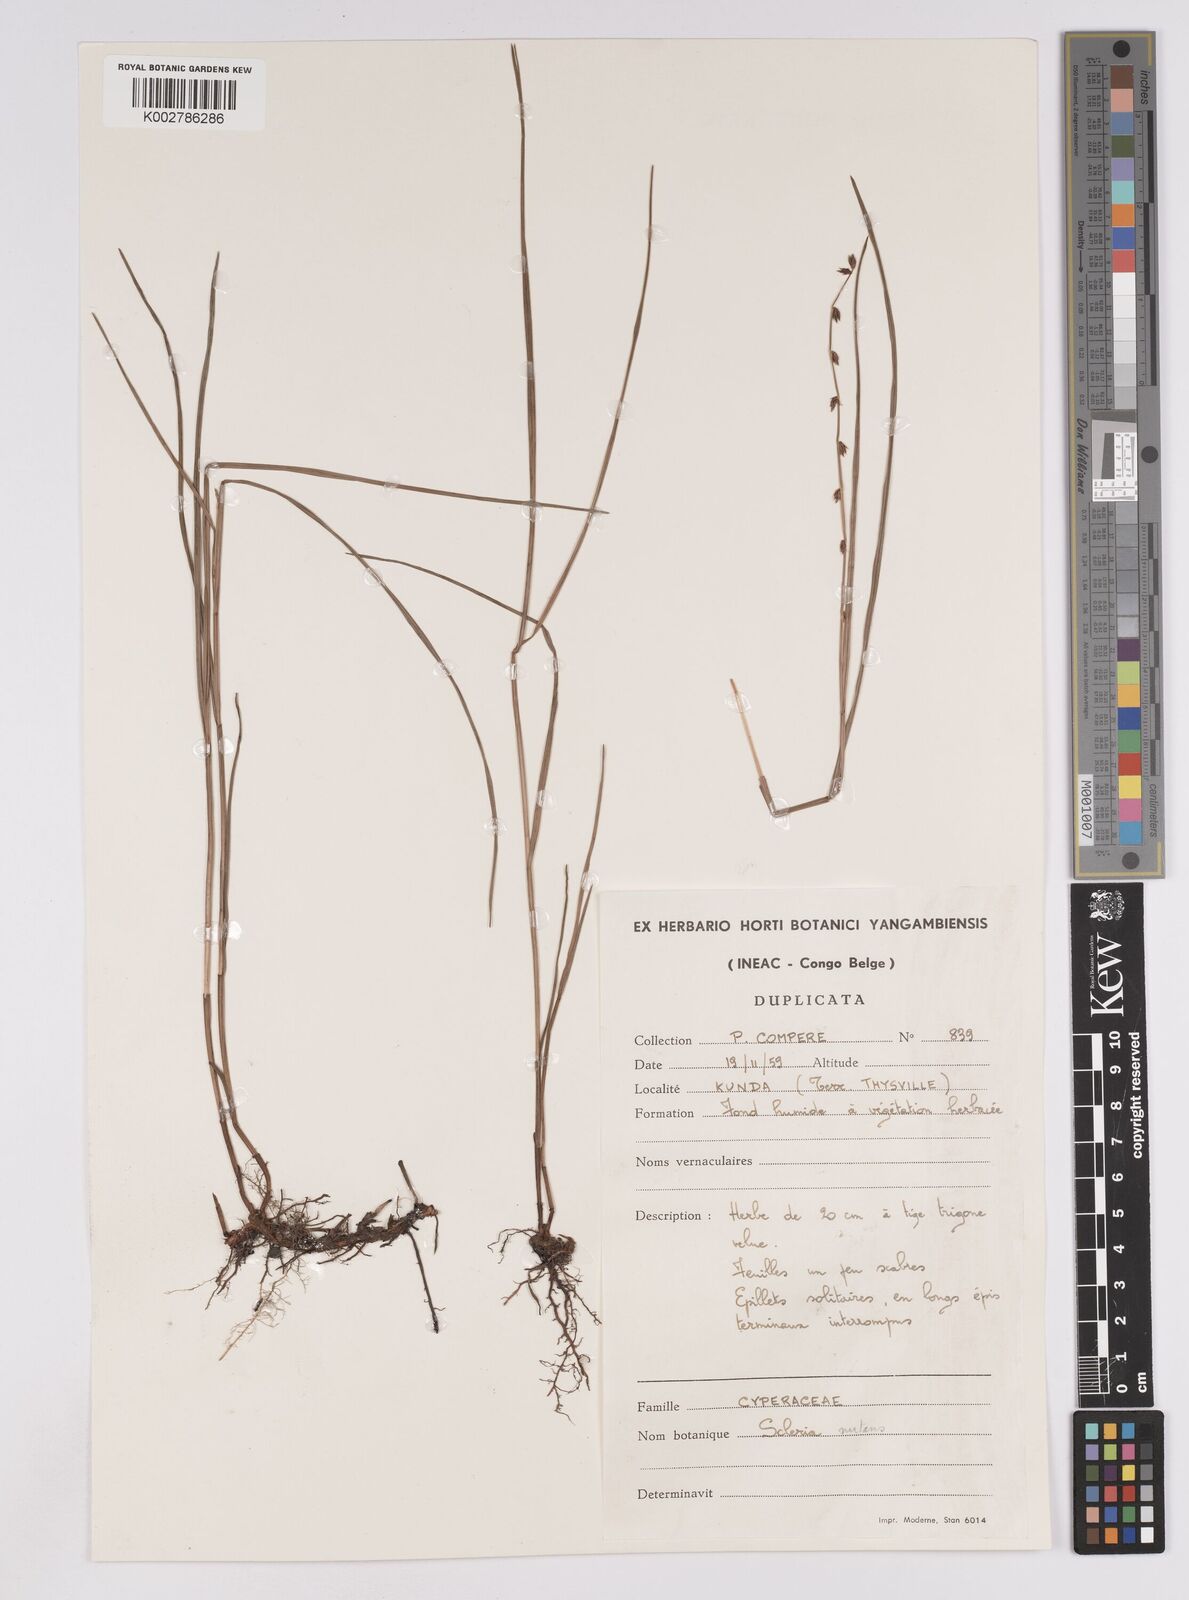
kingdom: Plantae
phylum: Tracheophyta
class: Liliopsida
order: Poales
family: Cyperaceae
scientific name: Cyperaceae
